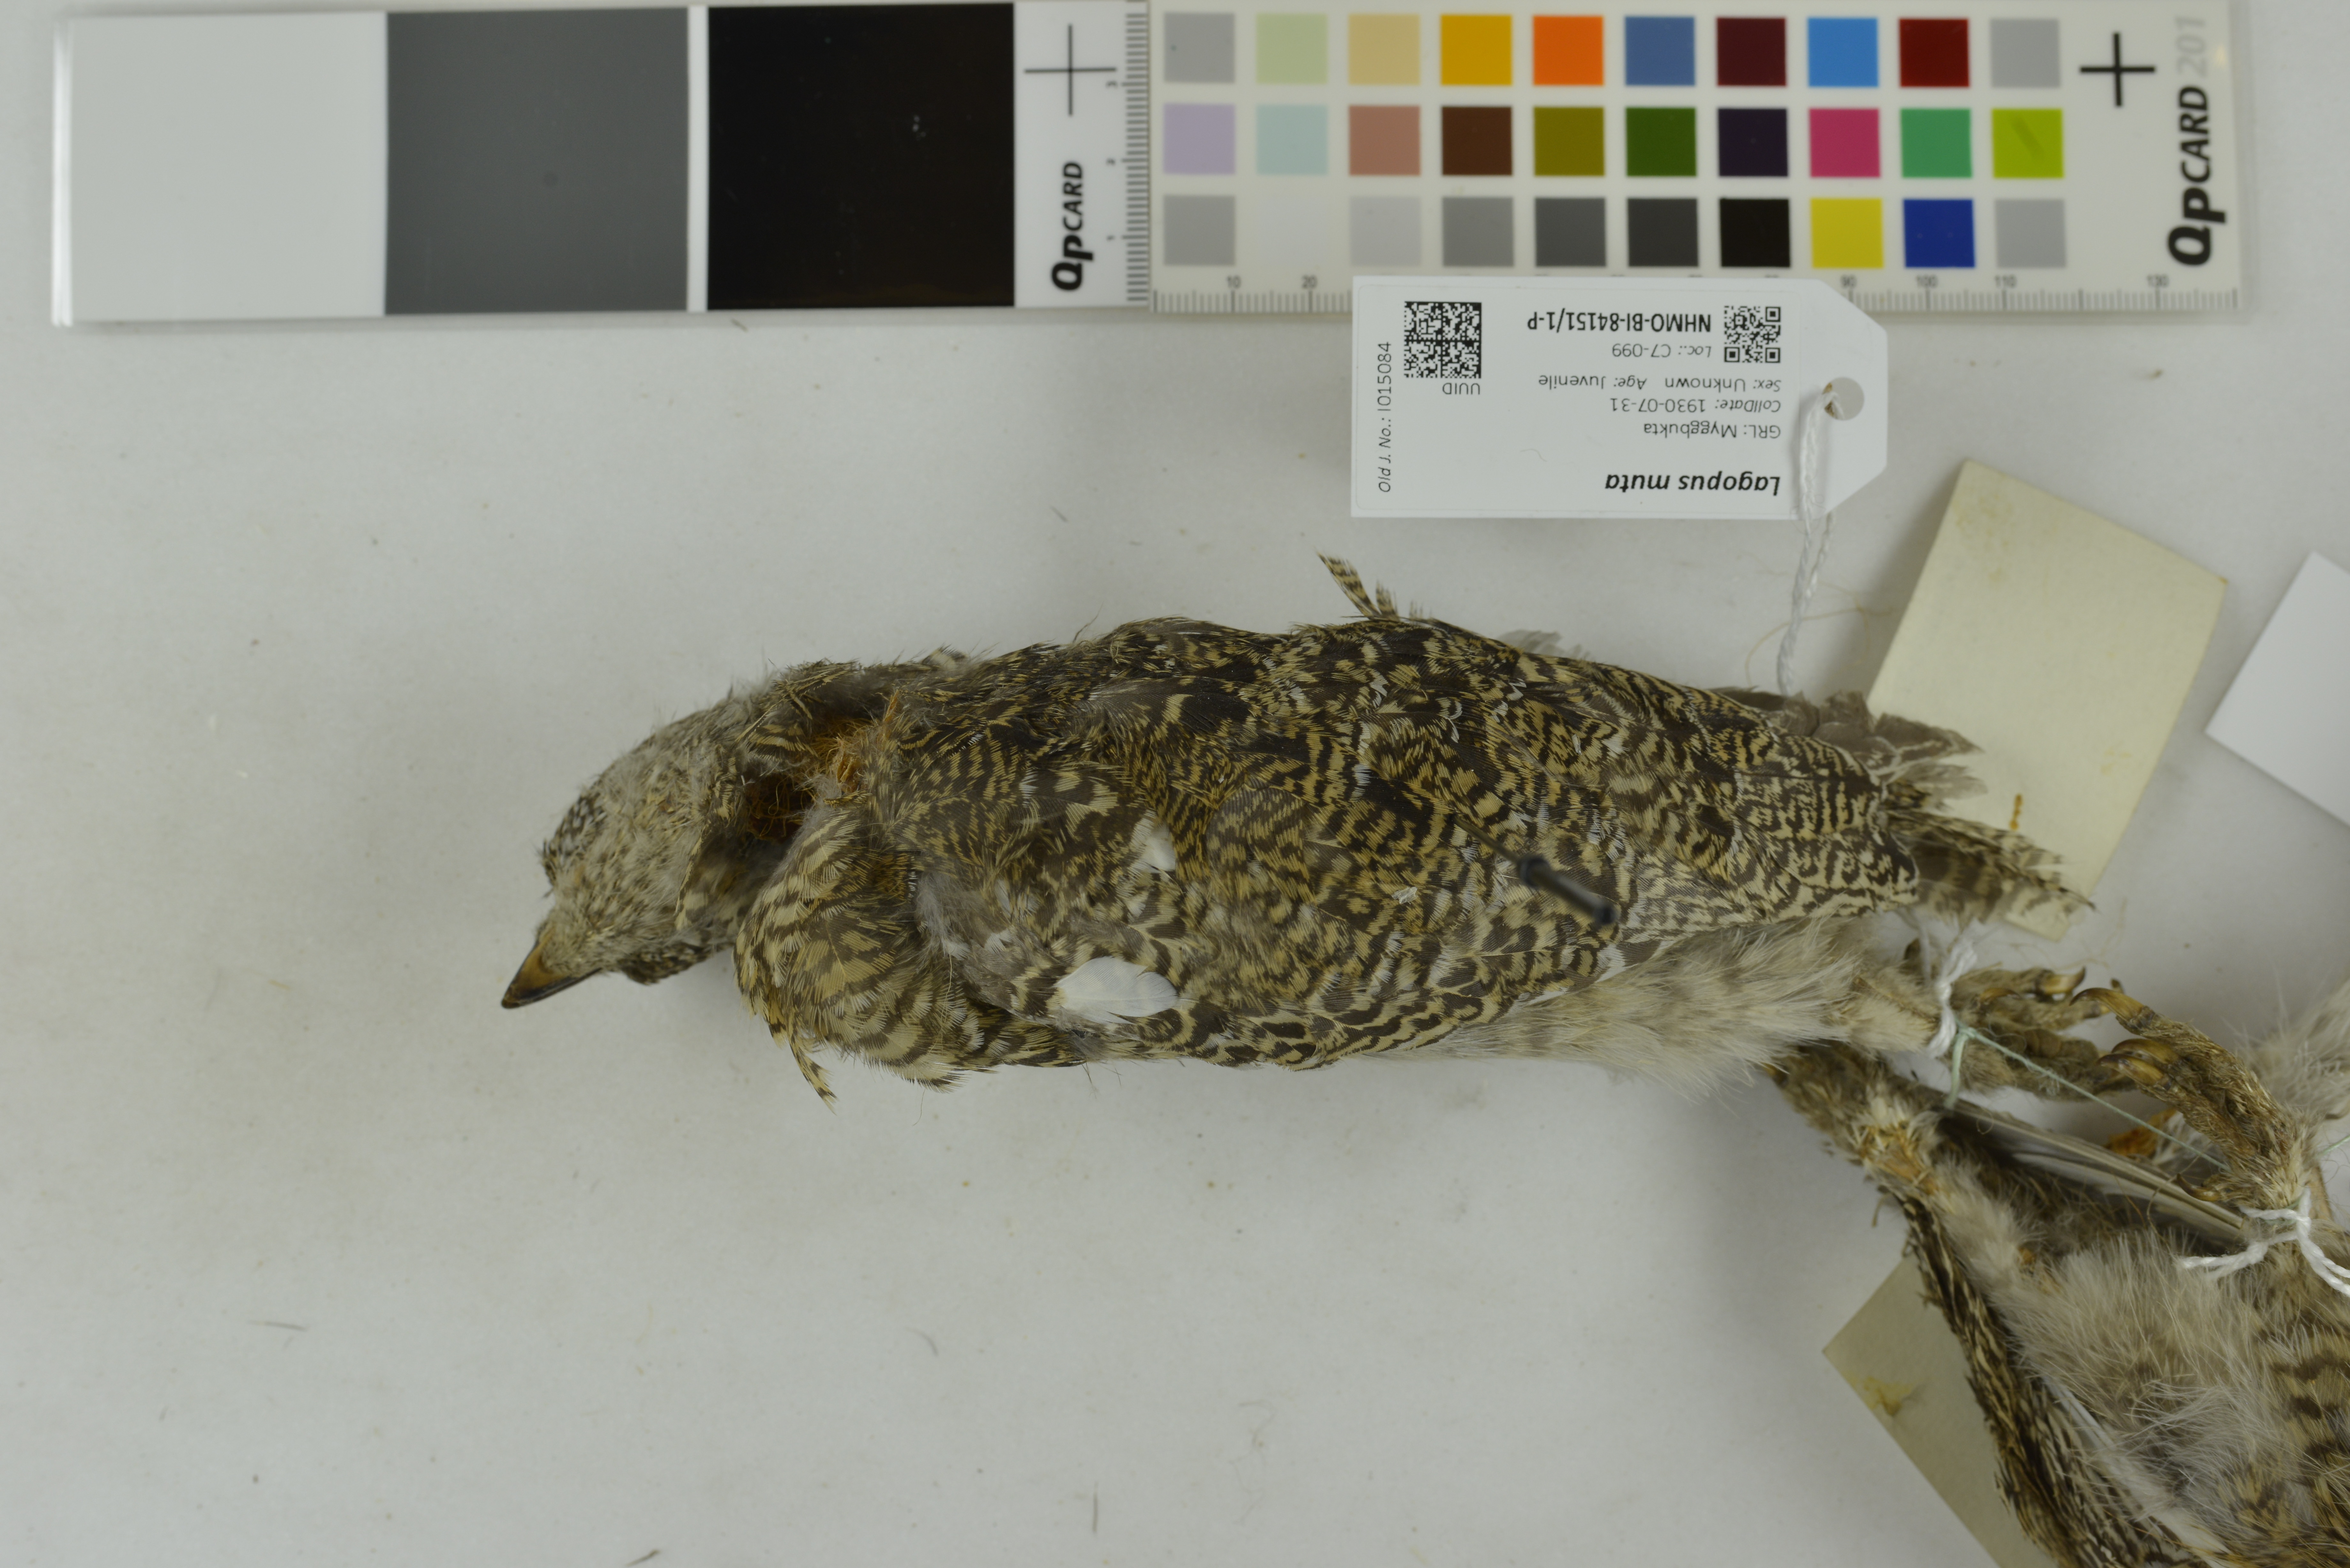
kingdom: Animalia
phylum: Chordata
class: Aves
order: Galliformes
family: Phasianidae
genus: Lagopus
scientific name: Lagopus muta
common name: Rock ptarmigan
